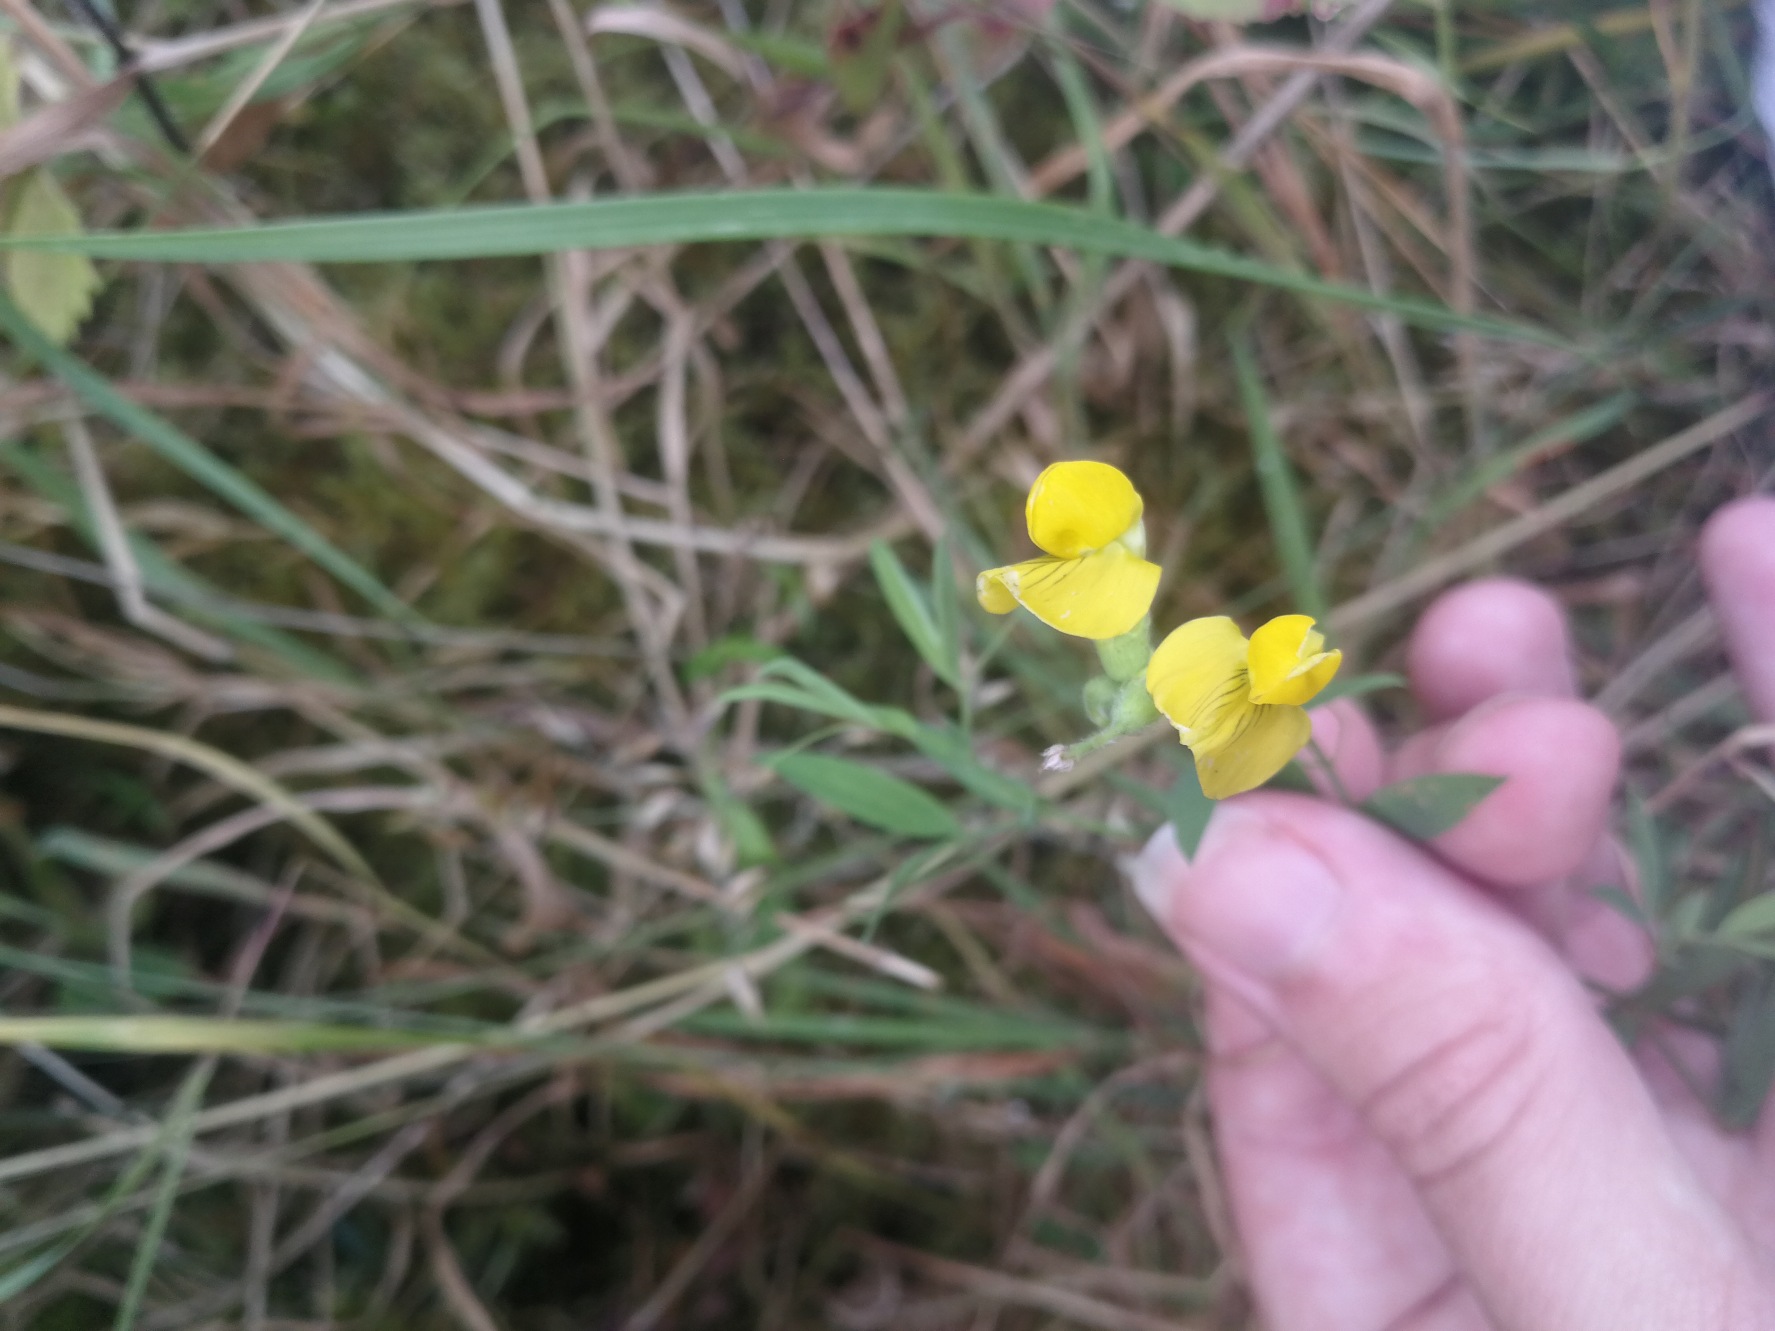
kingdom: Plantae
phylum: Tracheophyta
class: Magnoliopsida
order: Fabales
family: Fabaceae
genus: Lathyrus
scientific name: Lathyrus pratensis
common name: Gul fladbælg
